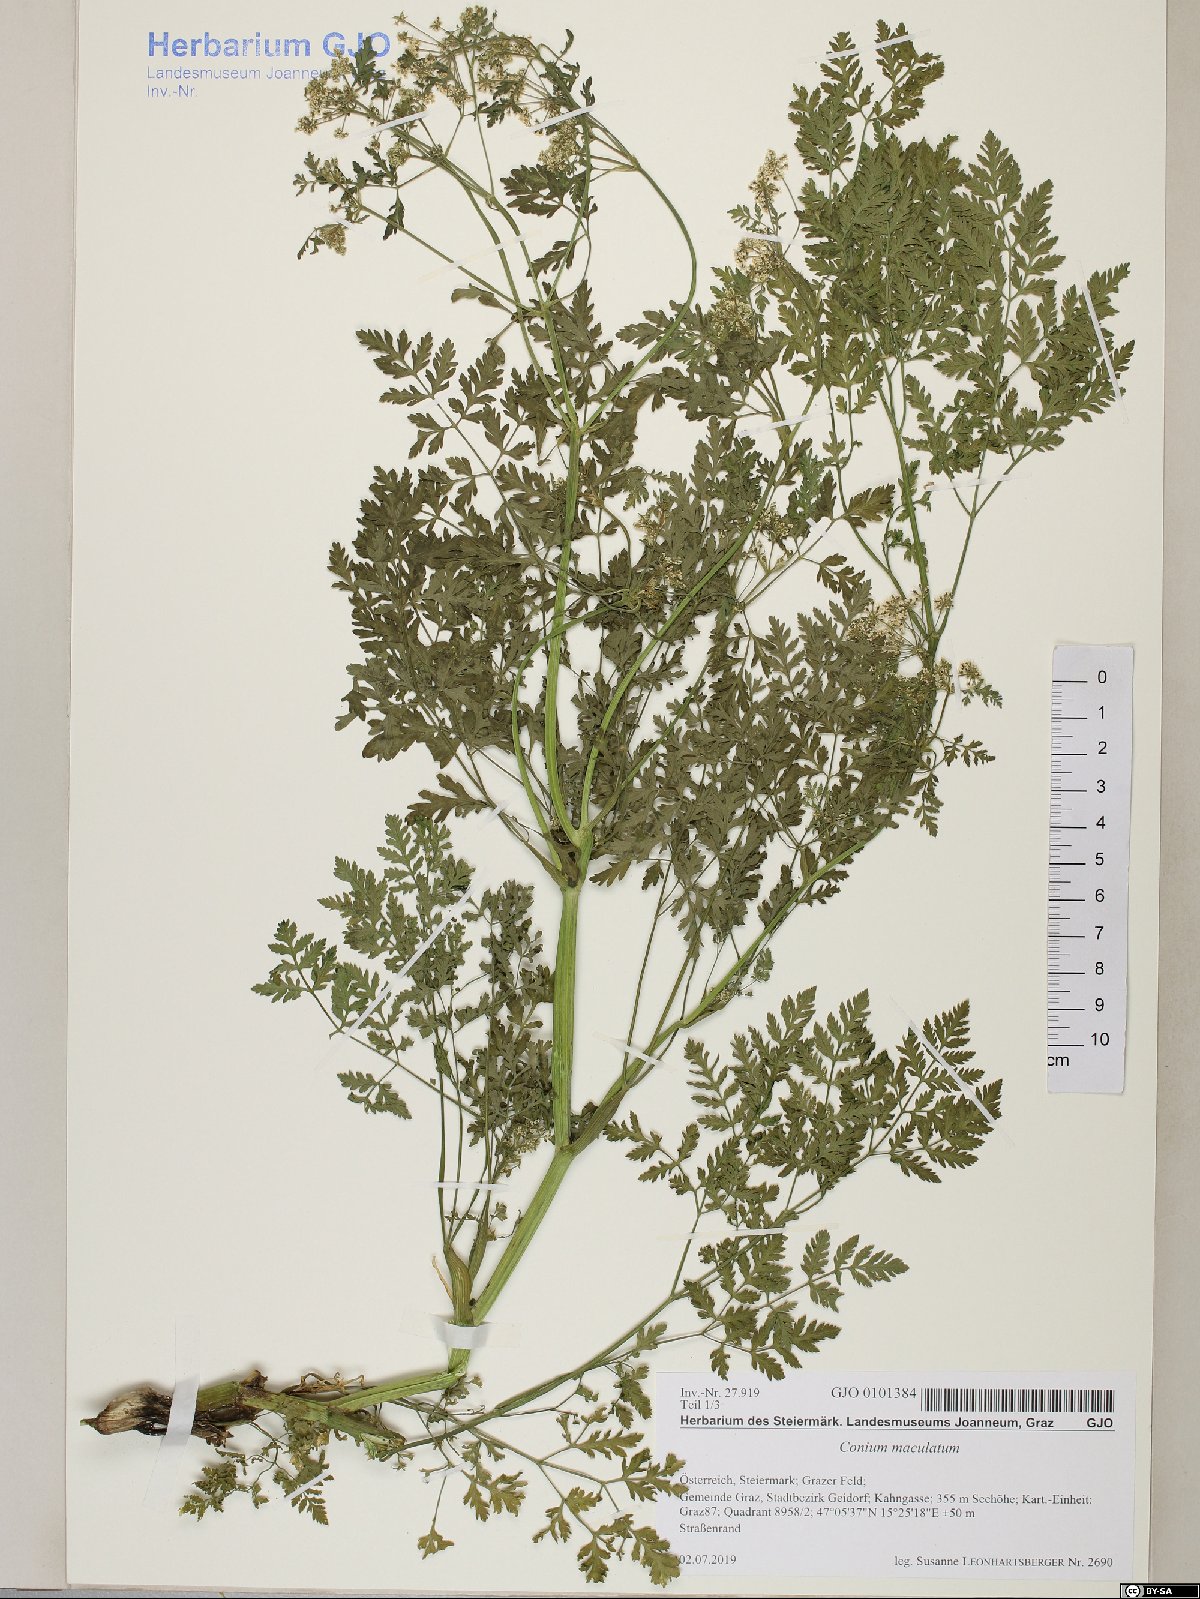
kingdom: Plantae
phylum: Tracheophyta
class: Magnoliopsida
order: Apiales
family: Apiaceae
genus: Conium
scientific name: Conium maculatum
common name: Hemlock
